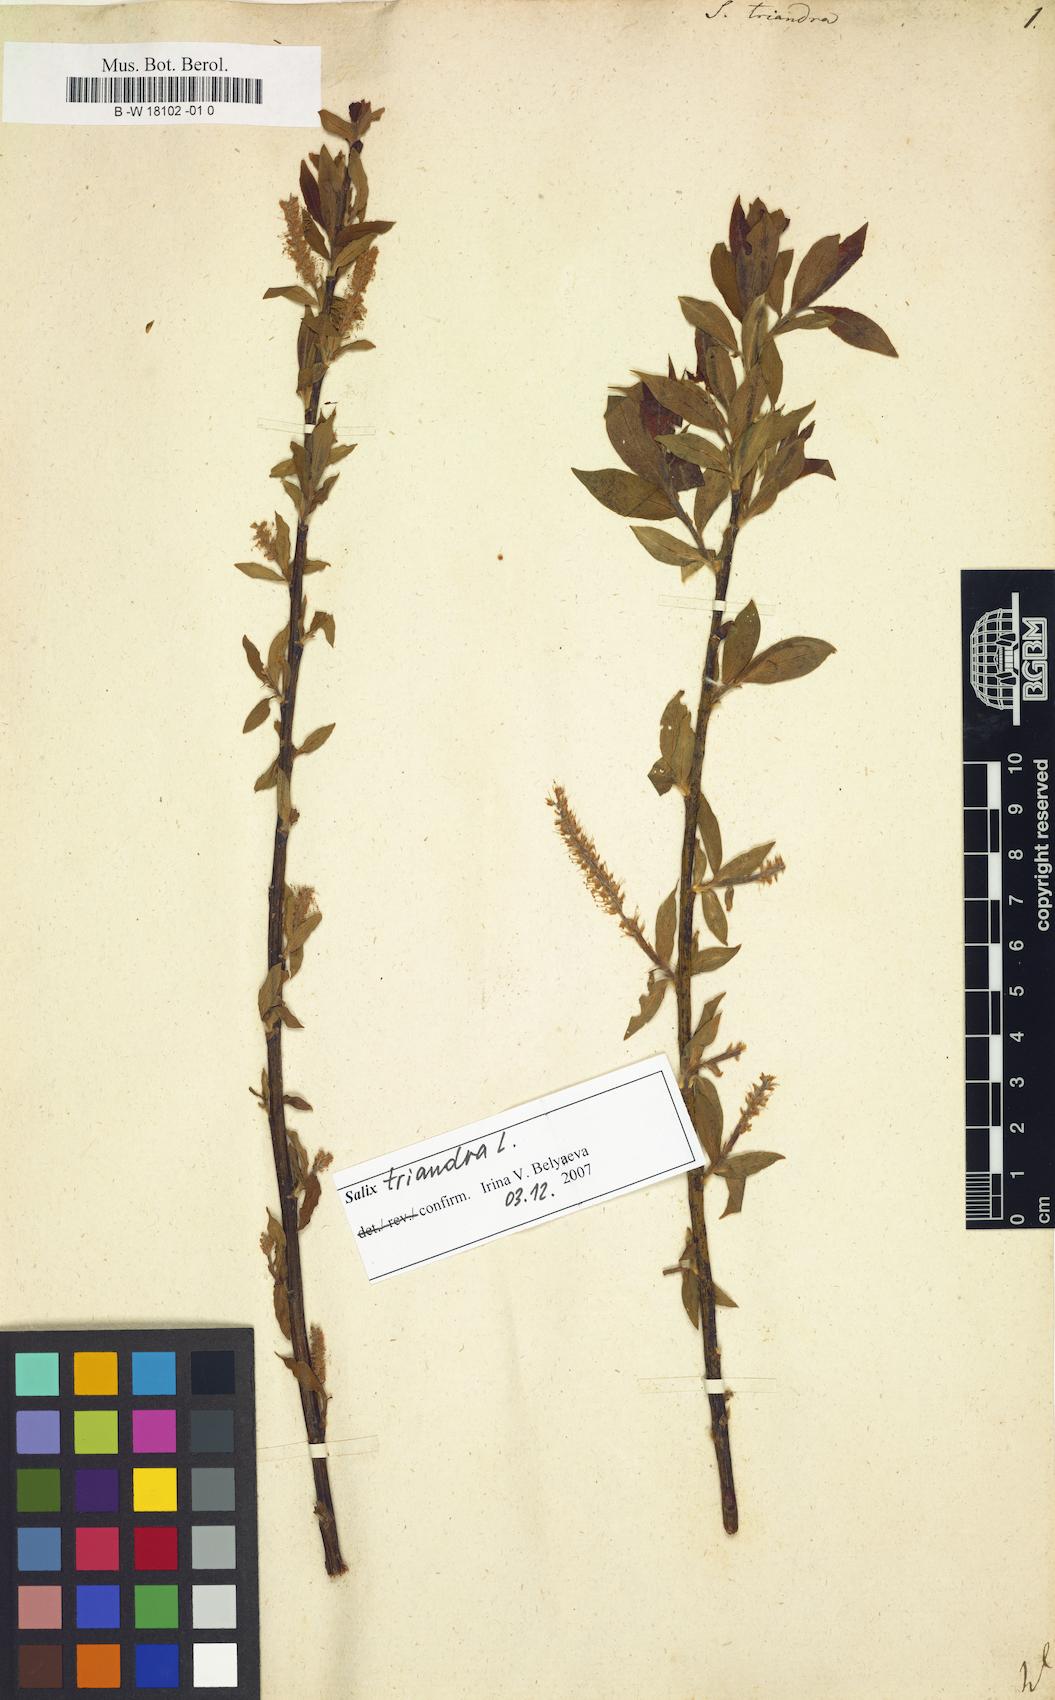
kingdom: Plantae
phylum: Tracheophyta
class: Magnoliopsida
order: Malpighiales
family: Salicaceae
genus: Salix
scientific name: Salix triandra
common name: Almond willow
